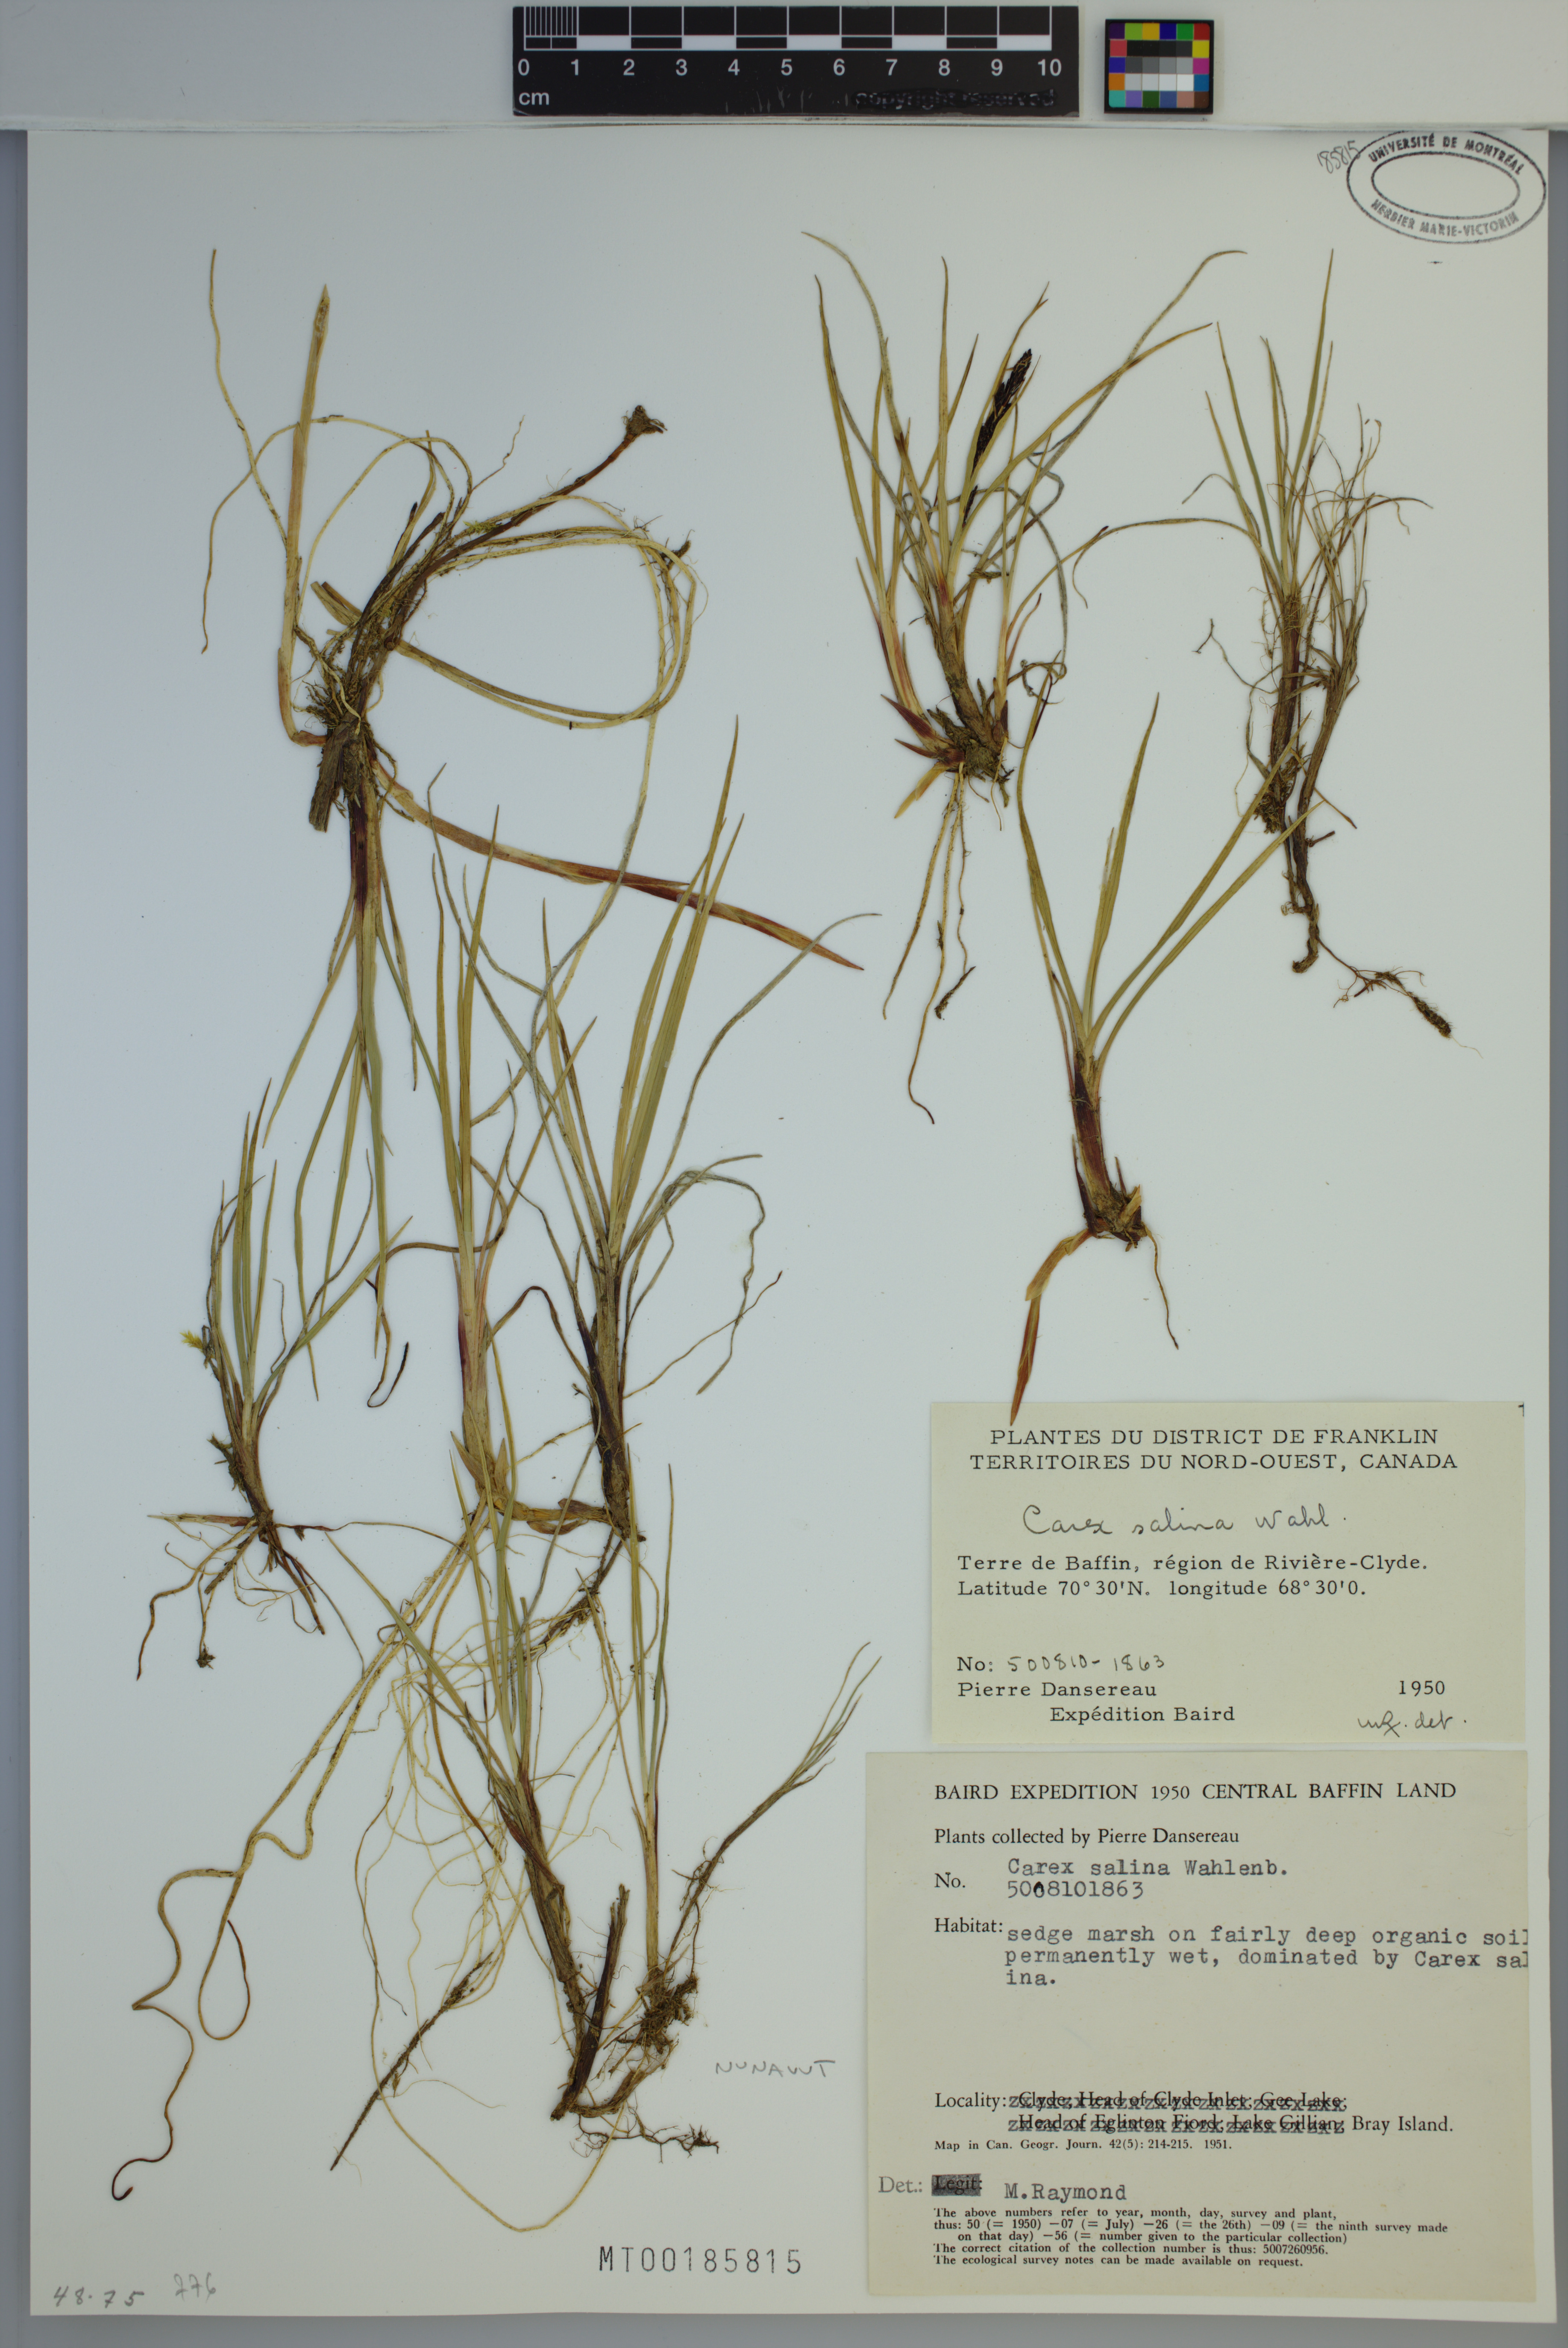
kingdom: Plantae
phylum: Tracheophyta
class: Liliopsida
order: Poales
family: Cyperaceae
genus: Carex
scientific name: Carex salina
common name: Saltmarsh sedge
